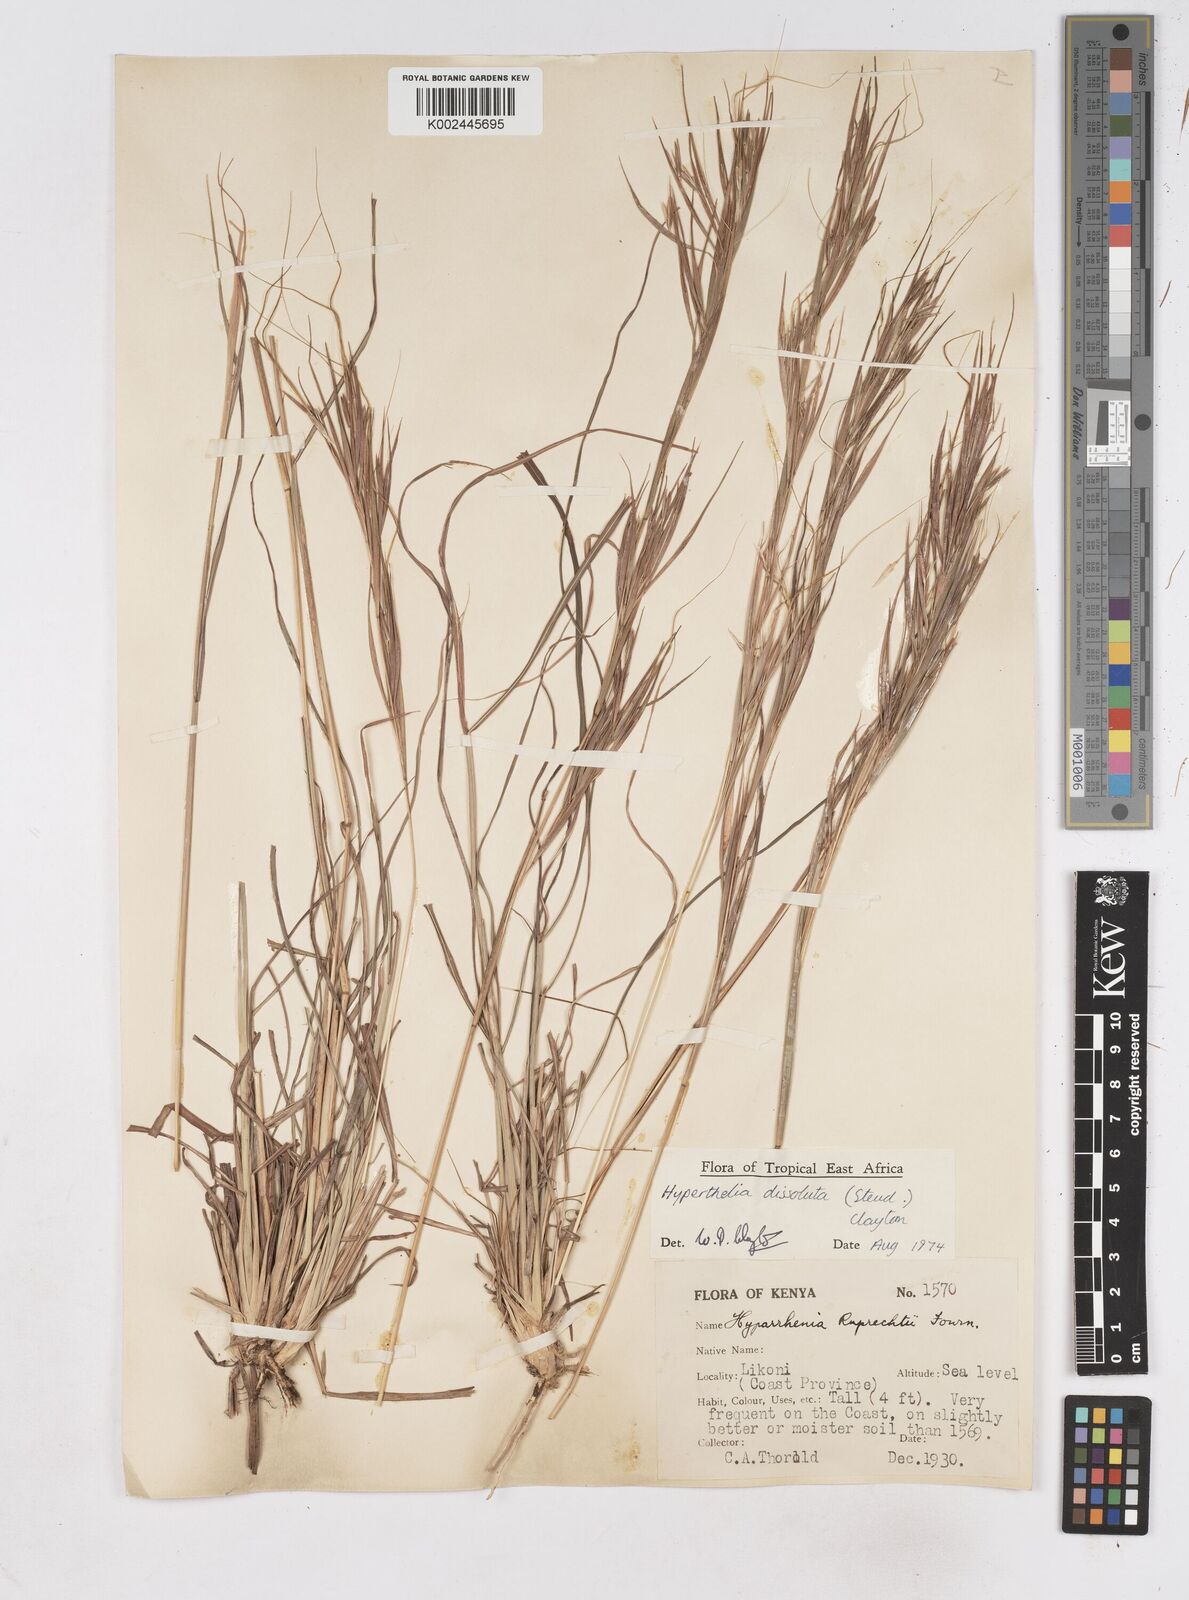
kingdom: Plantae
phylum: Tracheophyta
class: Liliopsida
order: Poales
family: Poaceae
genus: Hyperthelia
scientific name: Hyperthelia dissoluta
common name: Yellow thatching grass
